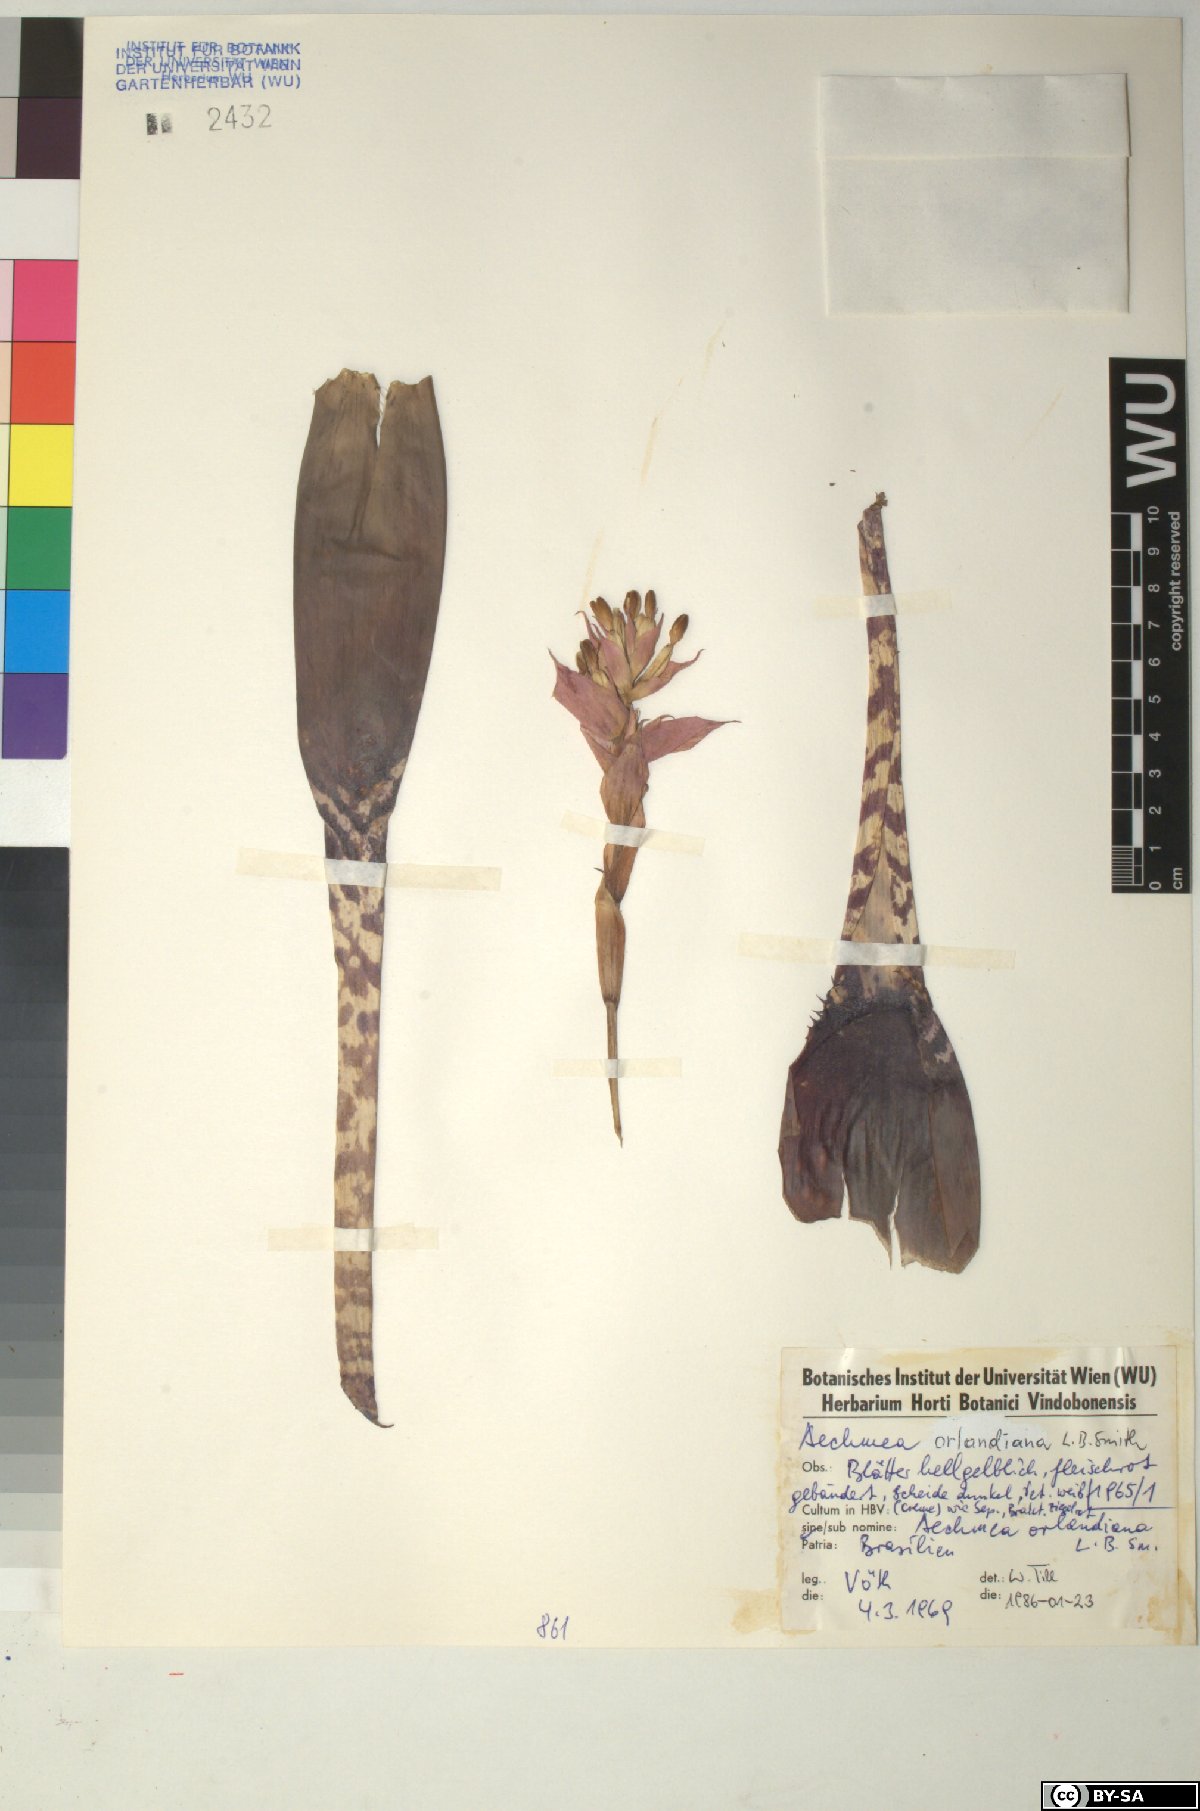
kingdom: Plantae
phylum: Tracheophyta
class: Liliopsida
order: Poales
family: Bromeliaceae
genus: Aechmea
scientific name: Aechmea orlandiana
